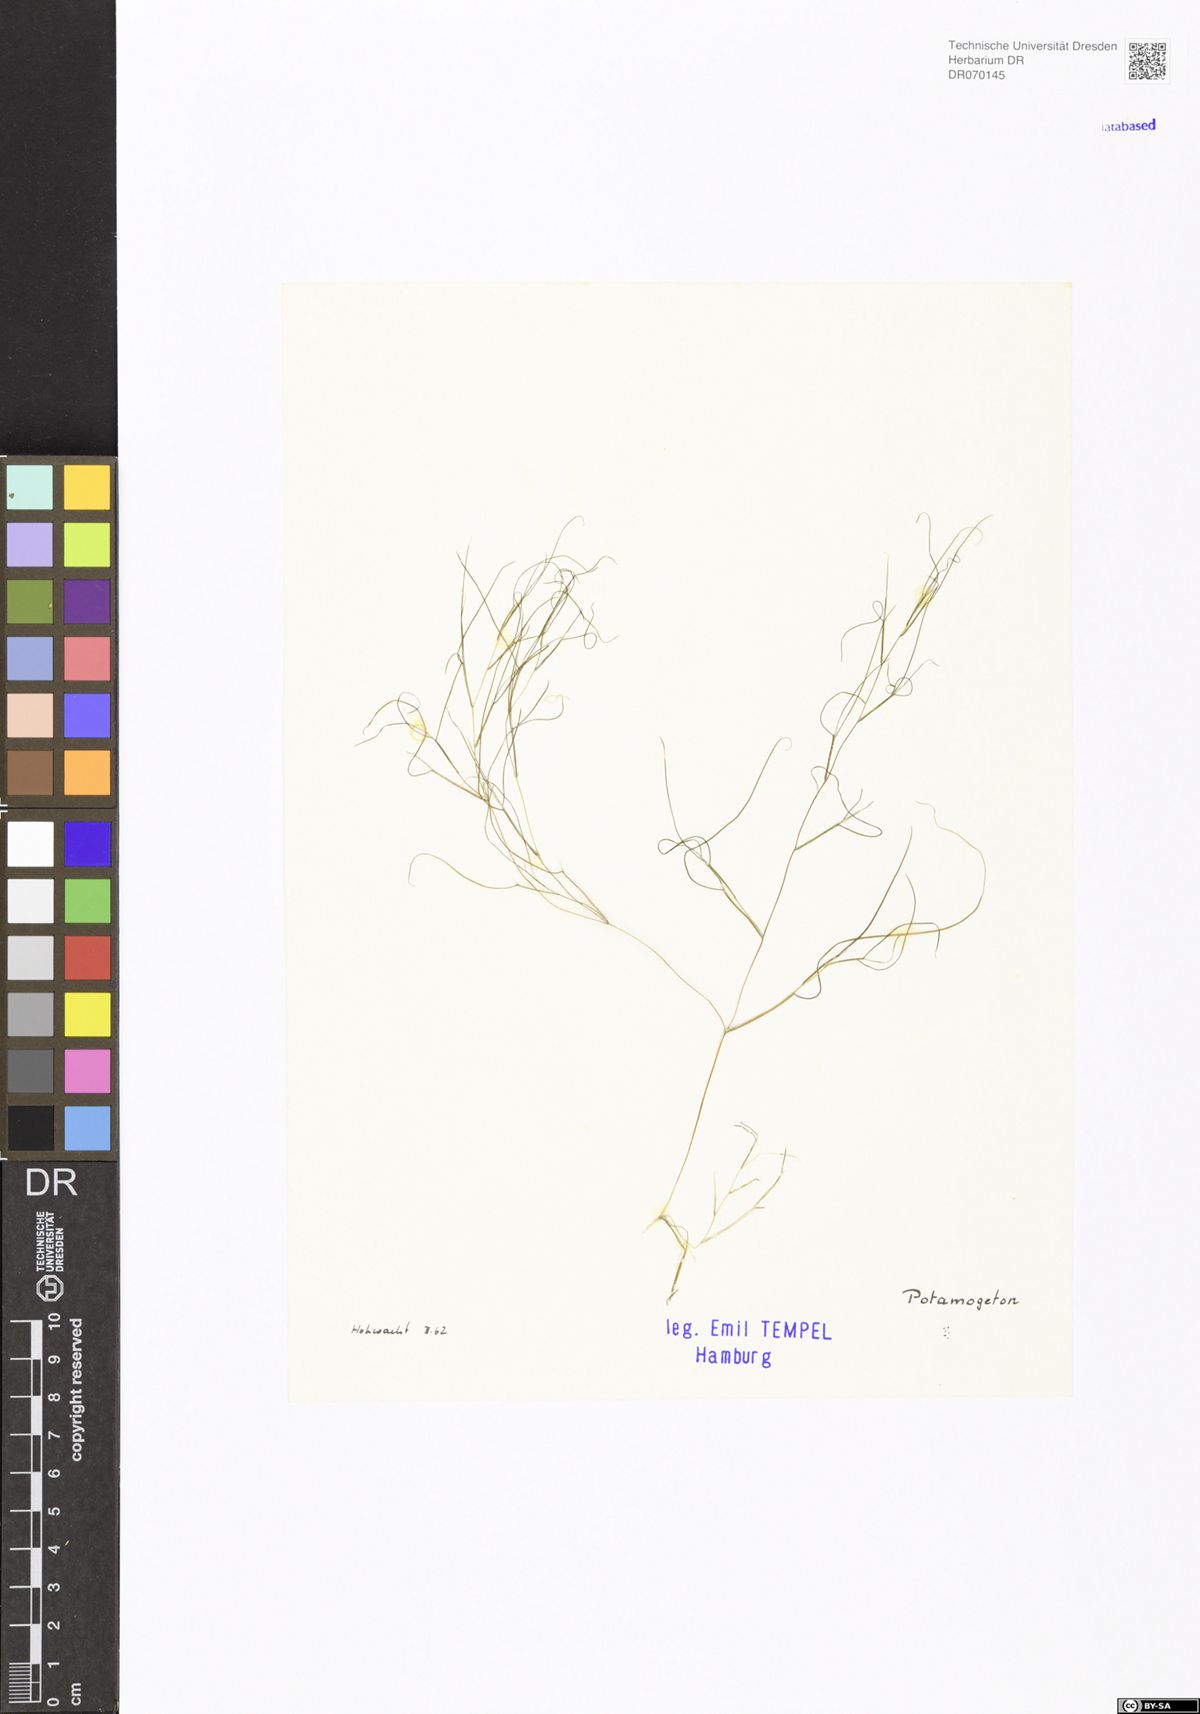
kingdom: Plantae
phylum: Tracheophyta
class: Liliopsida
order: Alismatales
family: Potamogetonaceae
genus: Potamogeton
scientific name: Potamogeton
